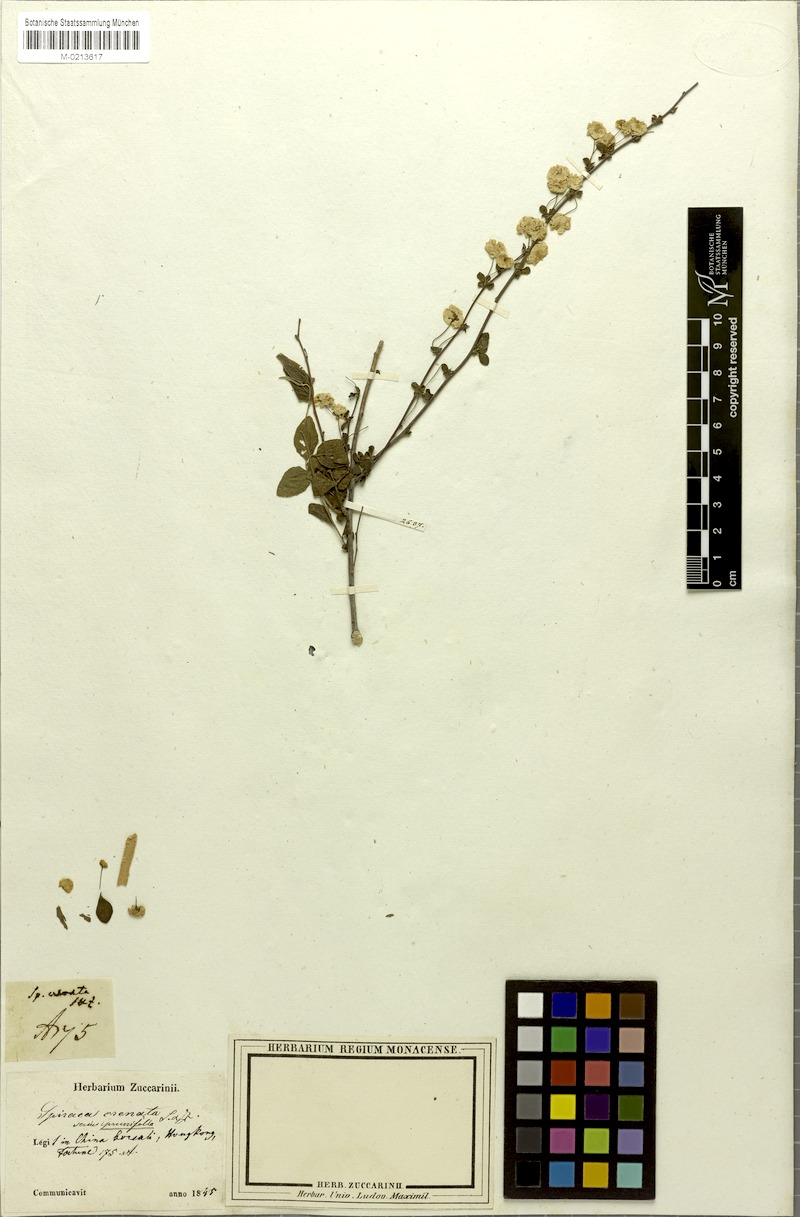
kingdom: Plantae
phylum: Tracheophyta
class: Magnoliopsida
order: Rosales
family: Rosaceae
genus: Spiraea
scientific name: Spiraea prunifolia
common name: Bridal-wreath spiraea
